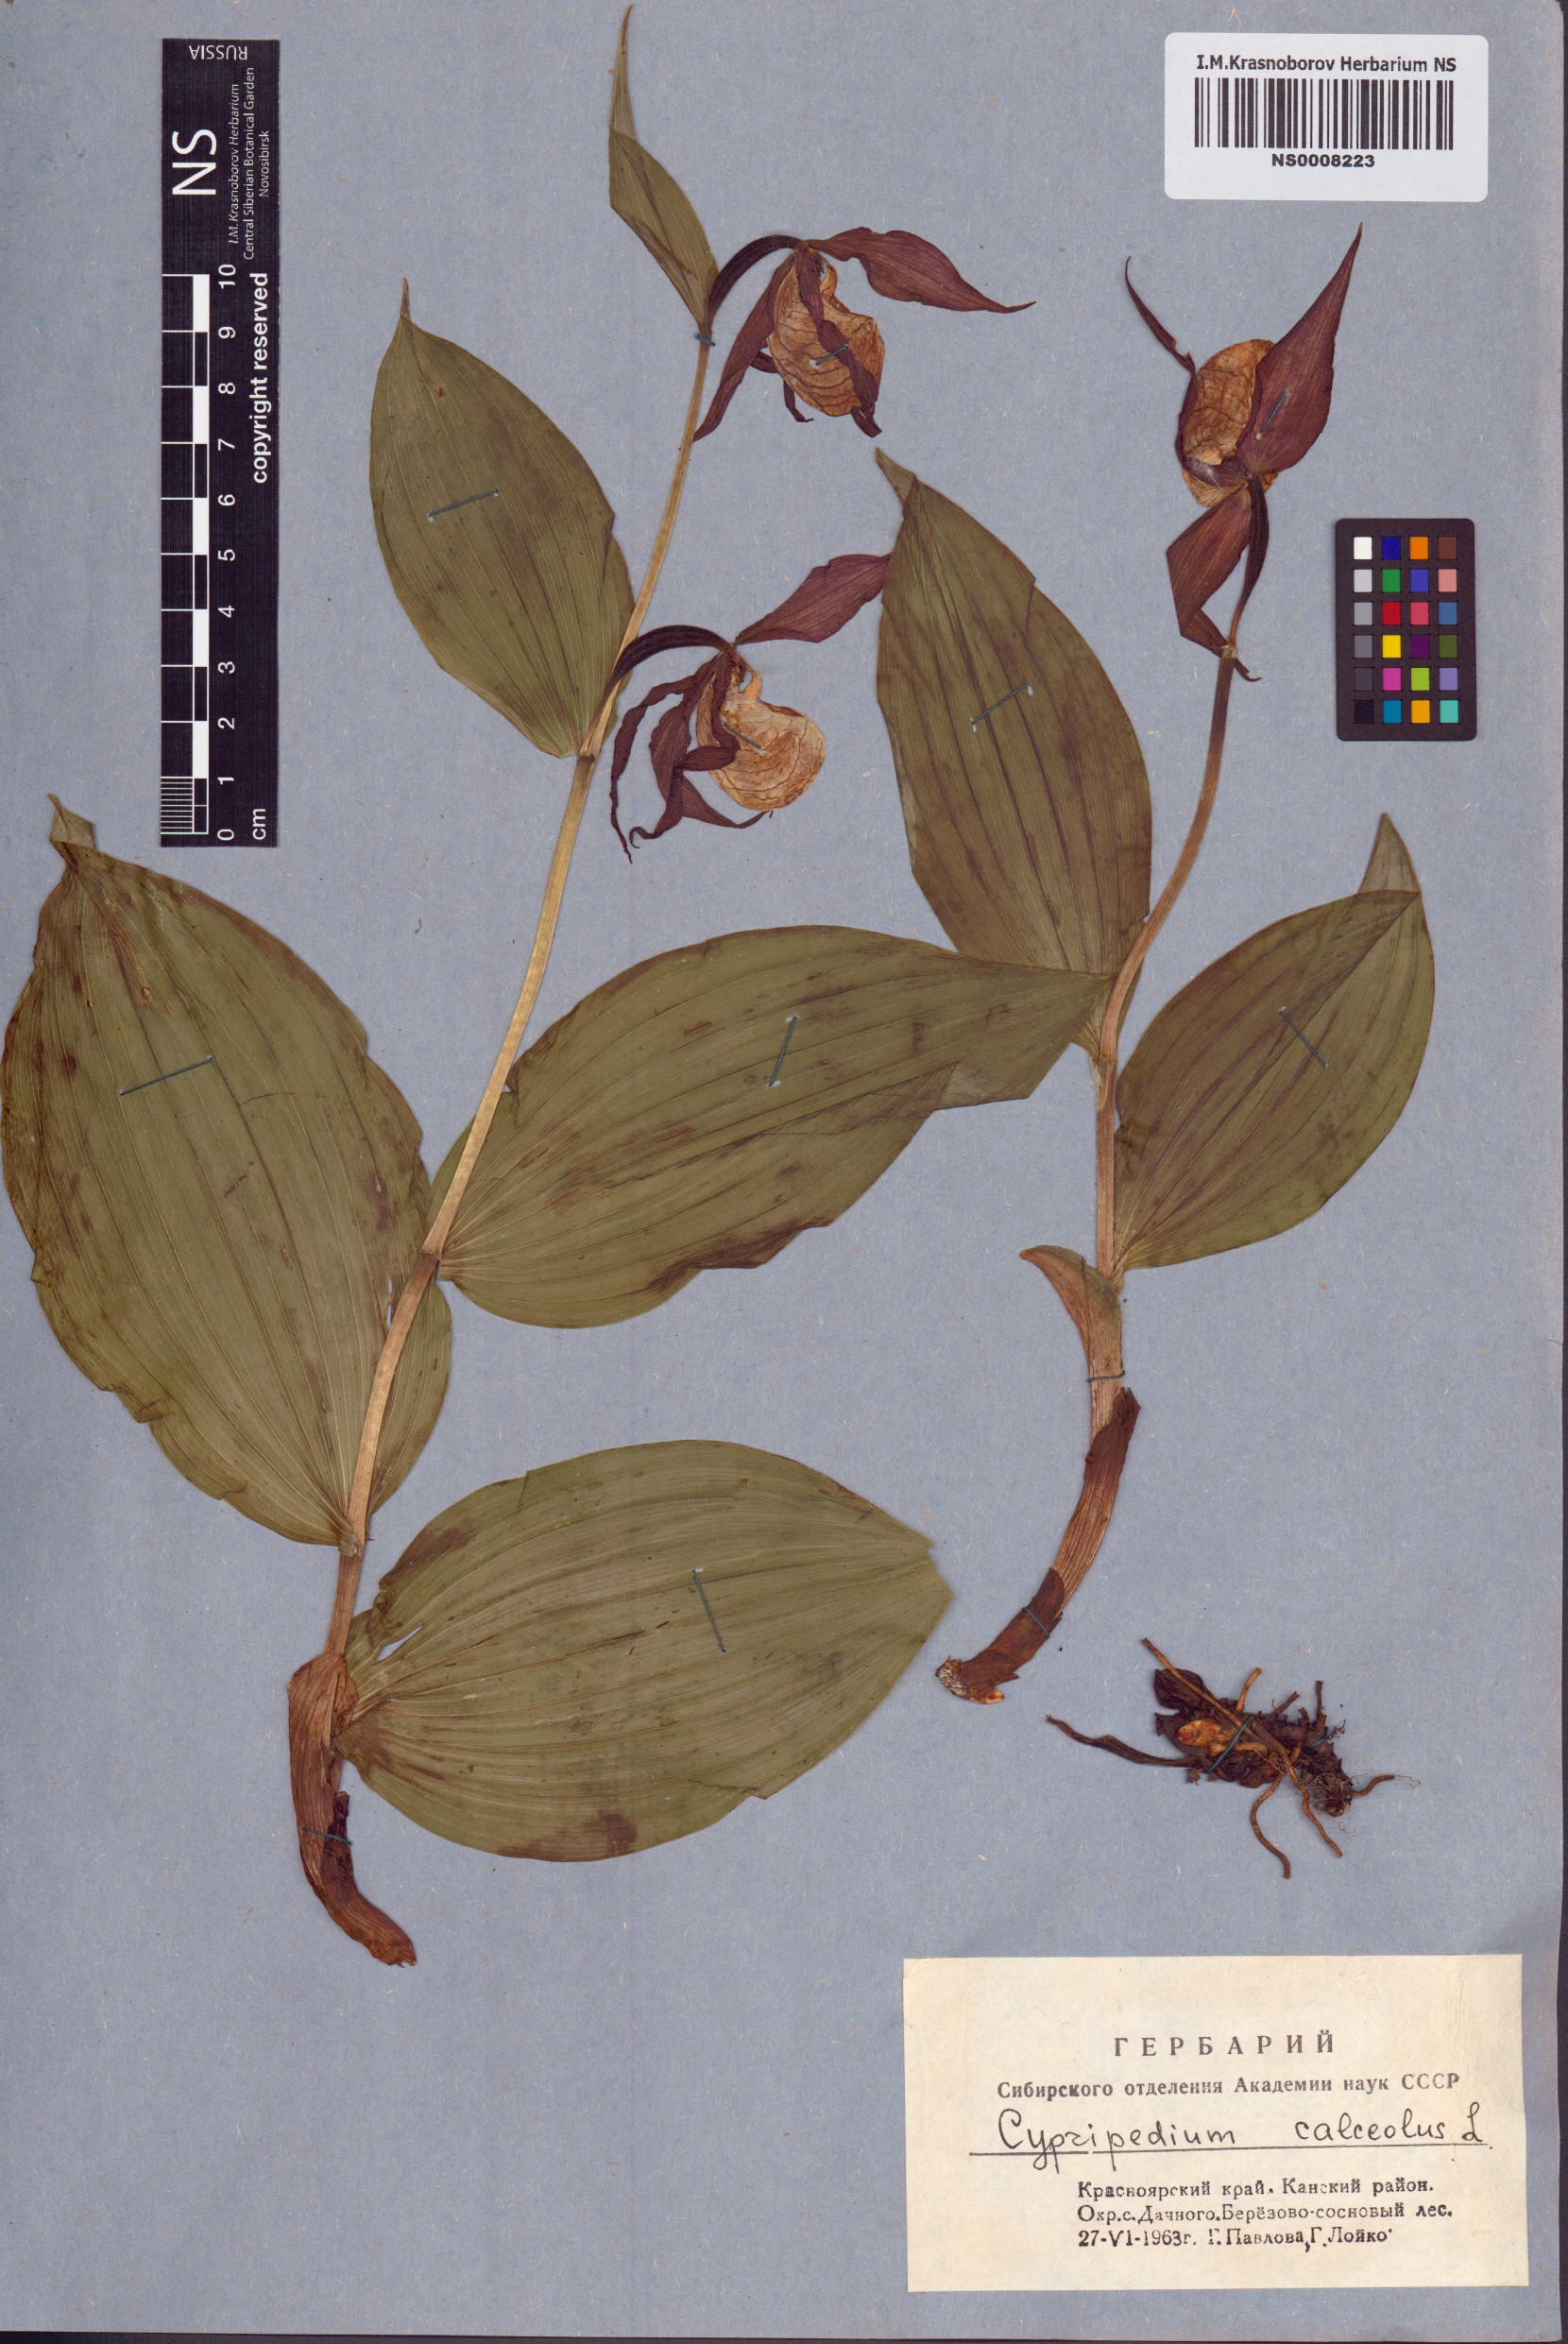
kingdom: Plantae
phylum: Tracheophyta
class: Liliopsida
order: Asparagales
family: Orchidaceae
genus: Cypripedium
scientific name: Cypripedium calceolus
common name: Lady's-slipper
